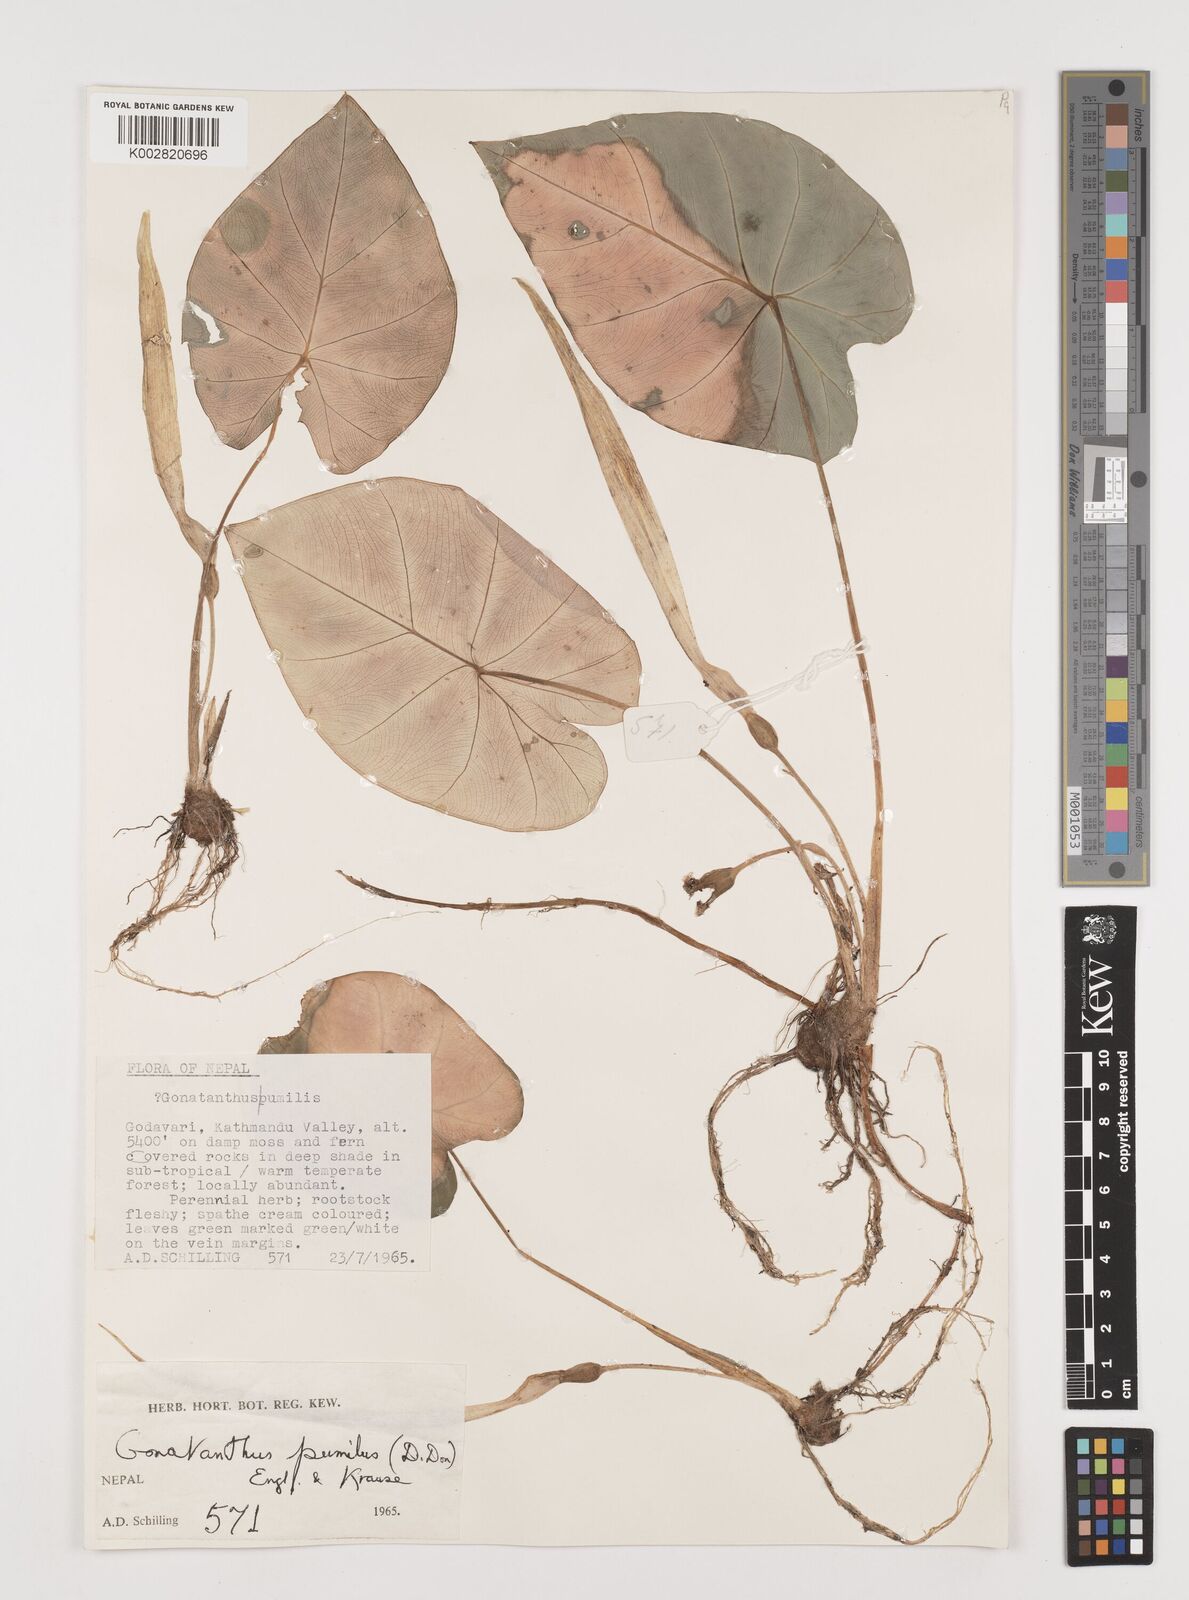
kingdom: Plantae
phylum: Tracheophyta
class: Liliopsida
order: Alismatales
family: Araceae
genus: Remusatia
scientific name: Remusatia pumila
